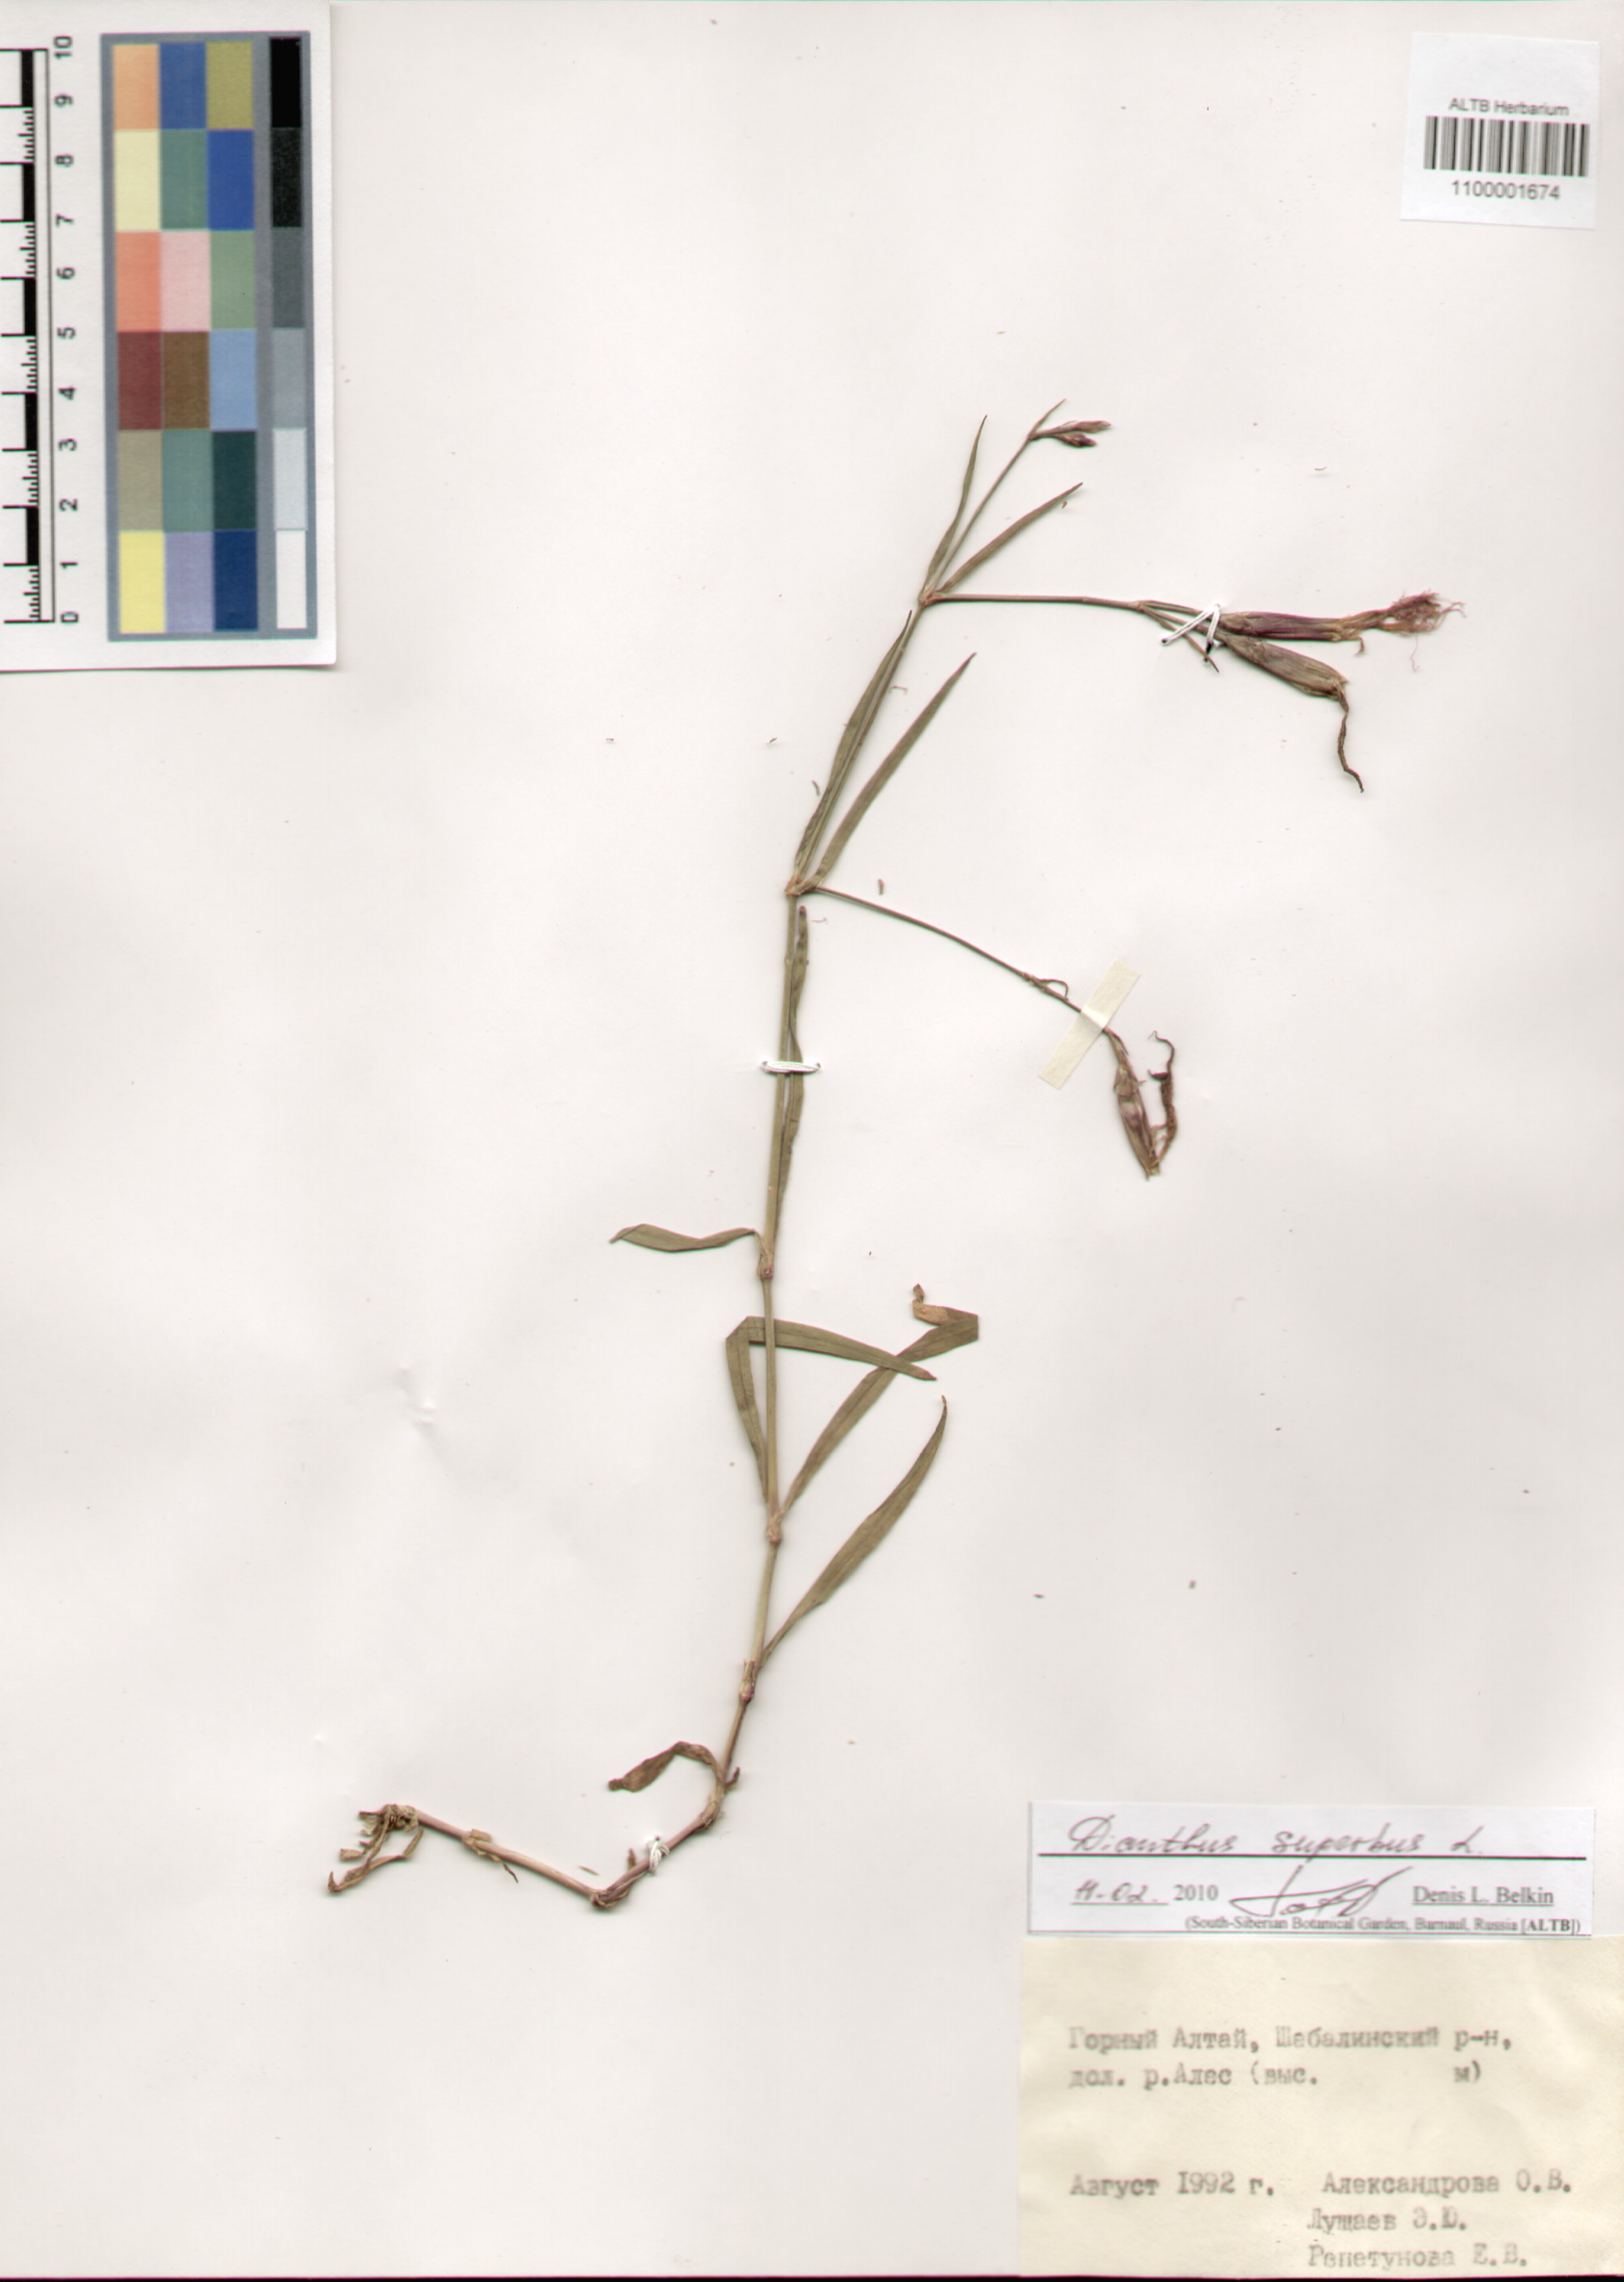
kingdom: Plantae
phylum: Tracheophyta
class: Magnoliopsida
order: Caryophyllales
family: Caryophyllaceae
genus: Dianthus
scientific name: Dianthus superbus
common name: Fringed pink
